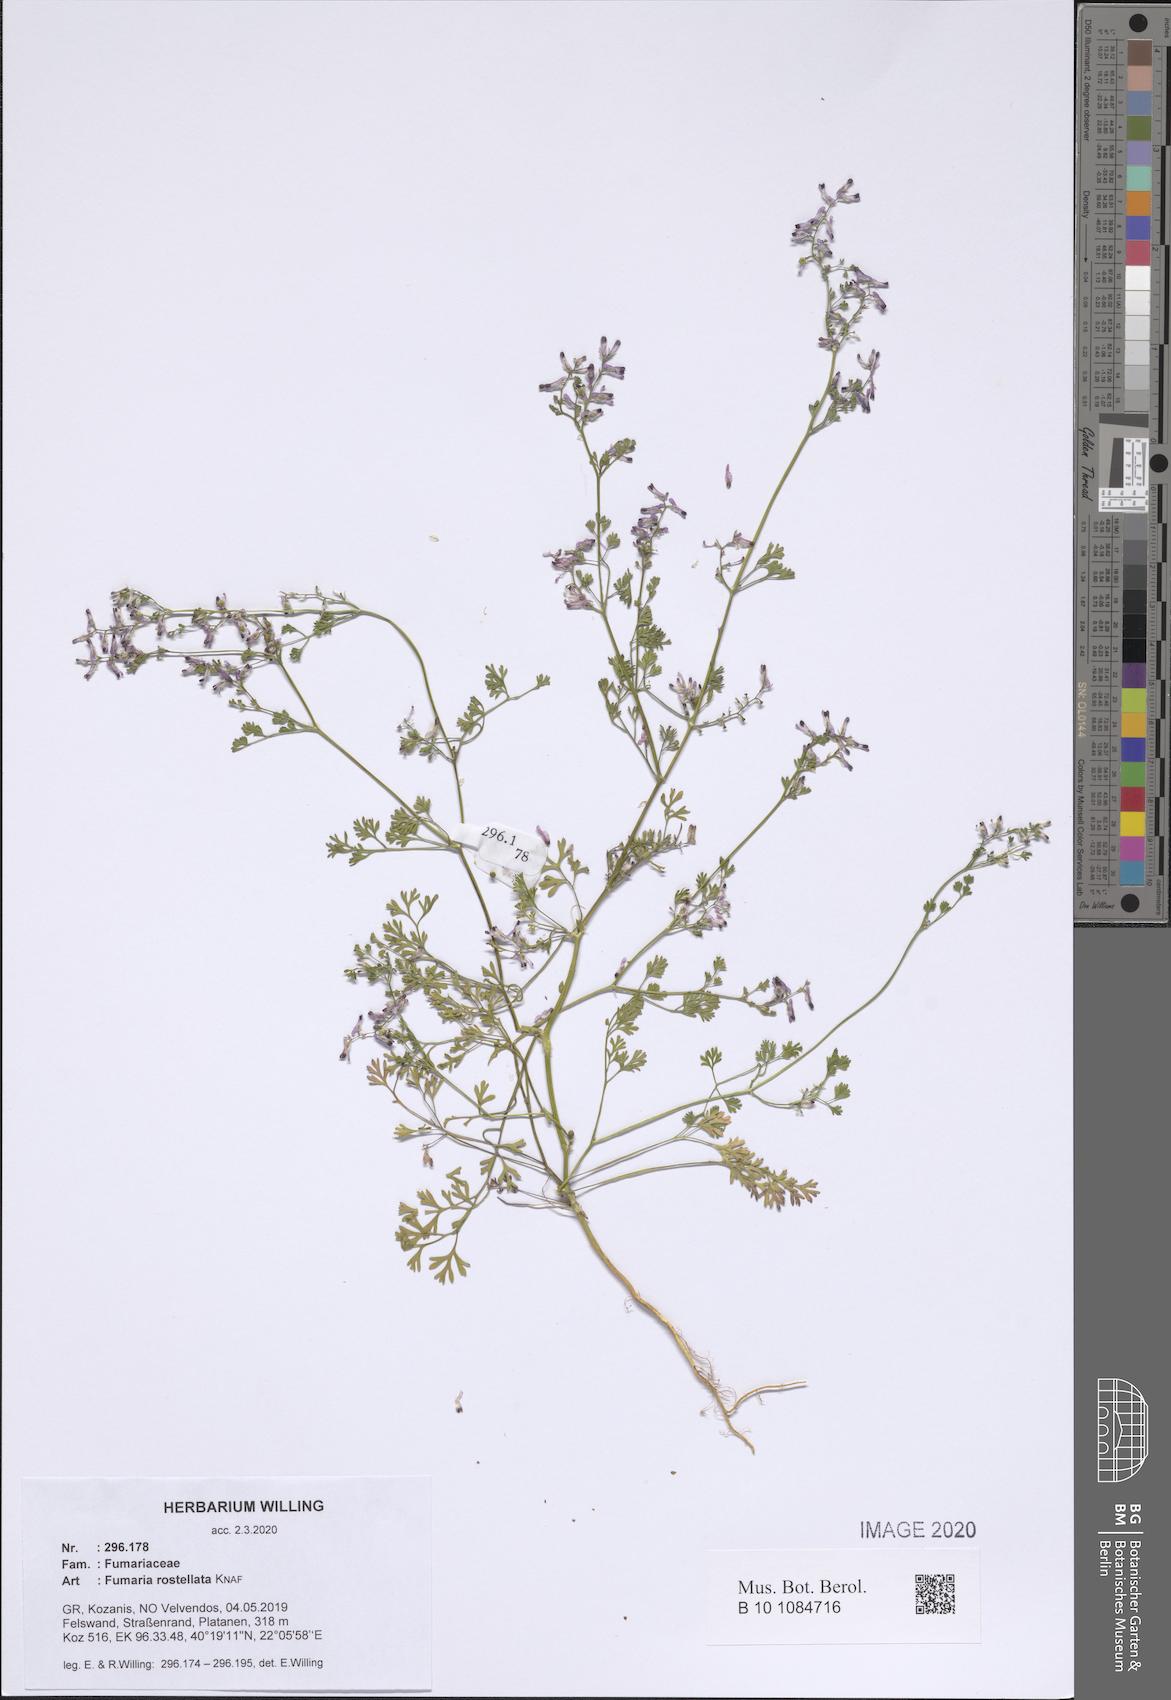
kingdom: Plantae
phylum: Tracheophyta
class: Magnoliopsida
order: Ranunculales
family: Papaveraceae
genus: Fumaria
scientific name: Fumaria rostellata
